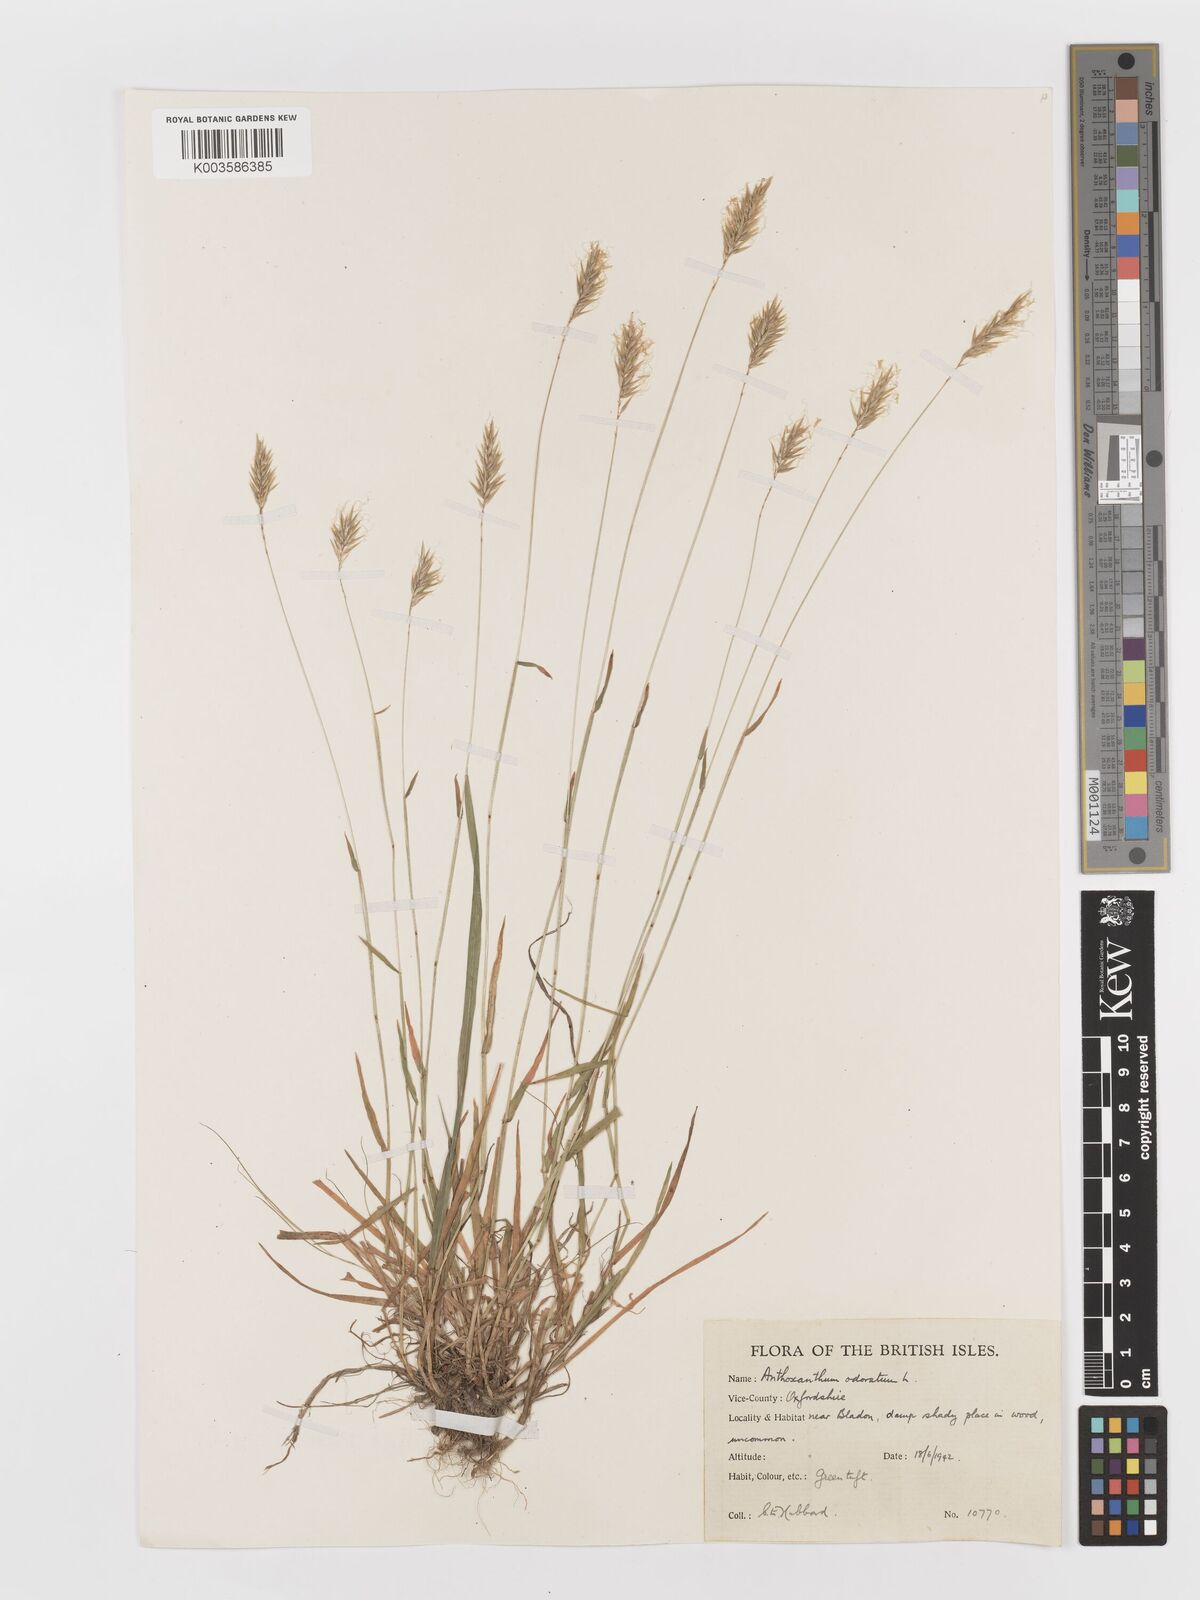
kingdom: Plantae
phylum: Tracheophyta
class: Liliopsida
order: Poales
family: Poaceae
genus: Anthoxanthum
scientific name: Anthoxanthum odoratum
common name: Sweet vernalgrass
